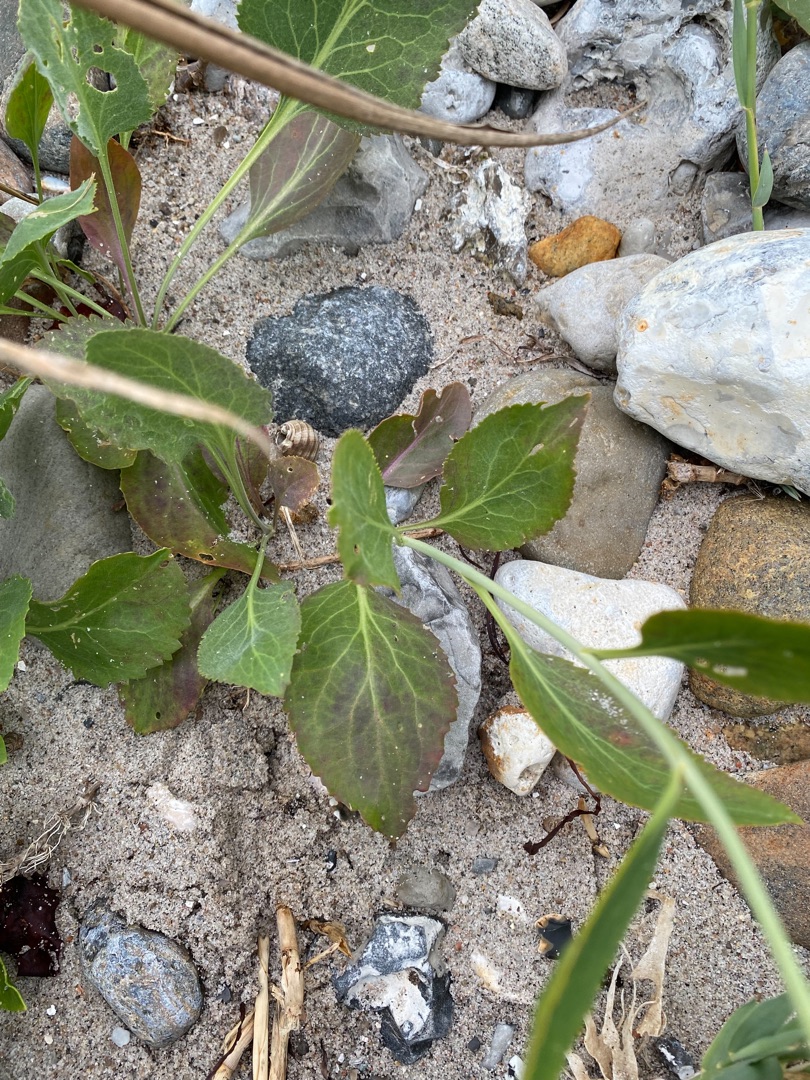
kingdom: Plantae
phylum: Tracheophyta
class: Magnoliopsida
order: Brassicales
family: Brassicaceae
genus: Lepidium
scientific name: Lepidium latifolium
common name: Strand-karse
